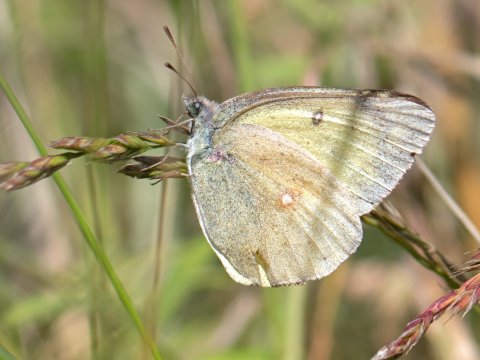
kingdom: Animalia
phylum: Arthropoda
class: Insecta
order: Lepidoptera
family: Pieridae
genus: Colias
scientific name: Colias
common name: Clouded Yellows
